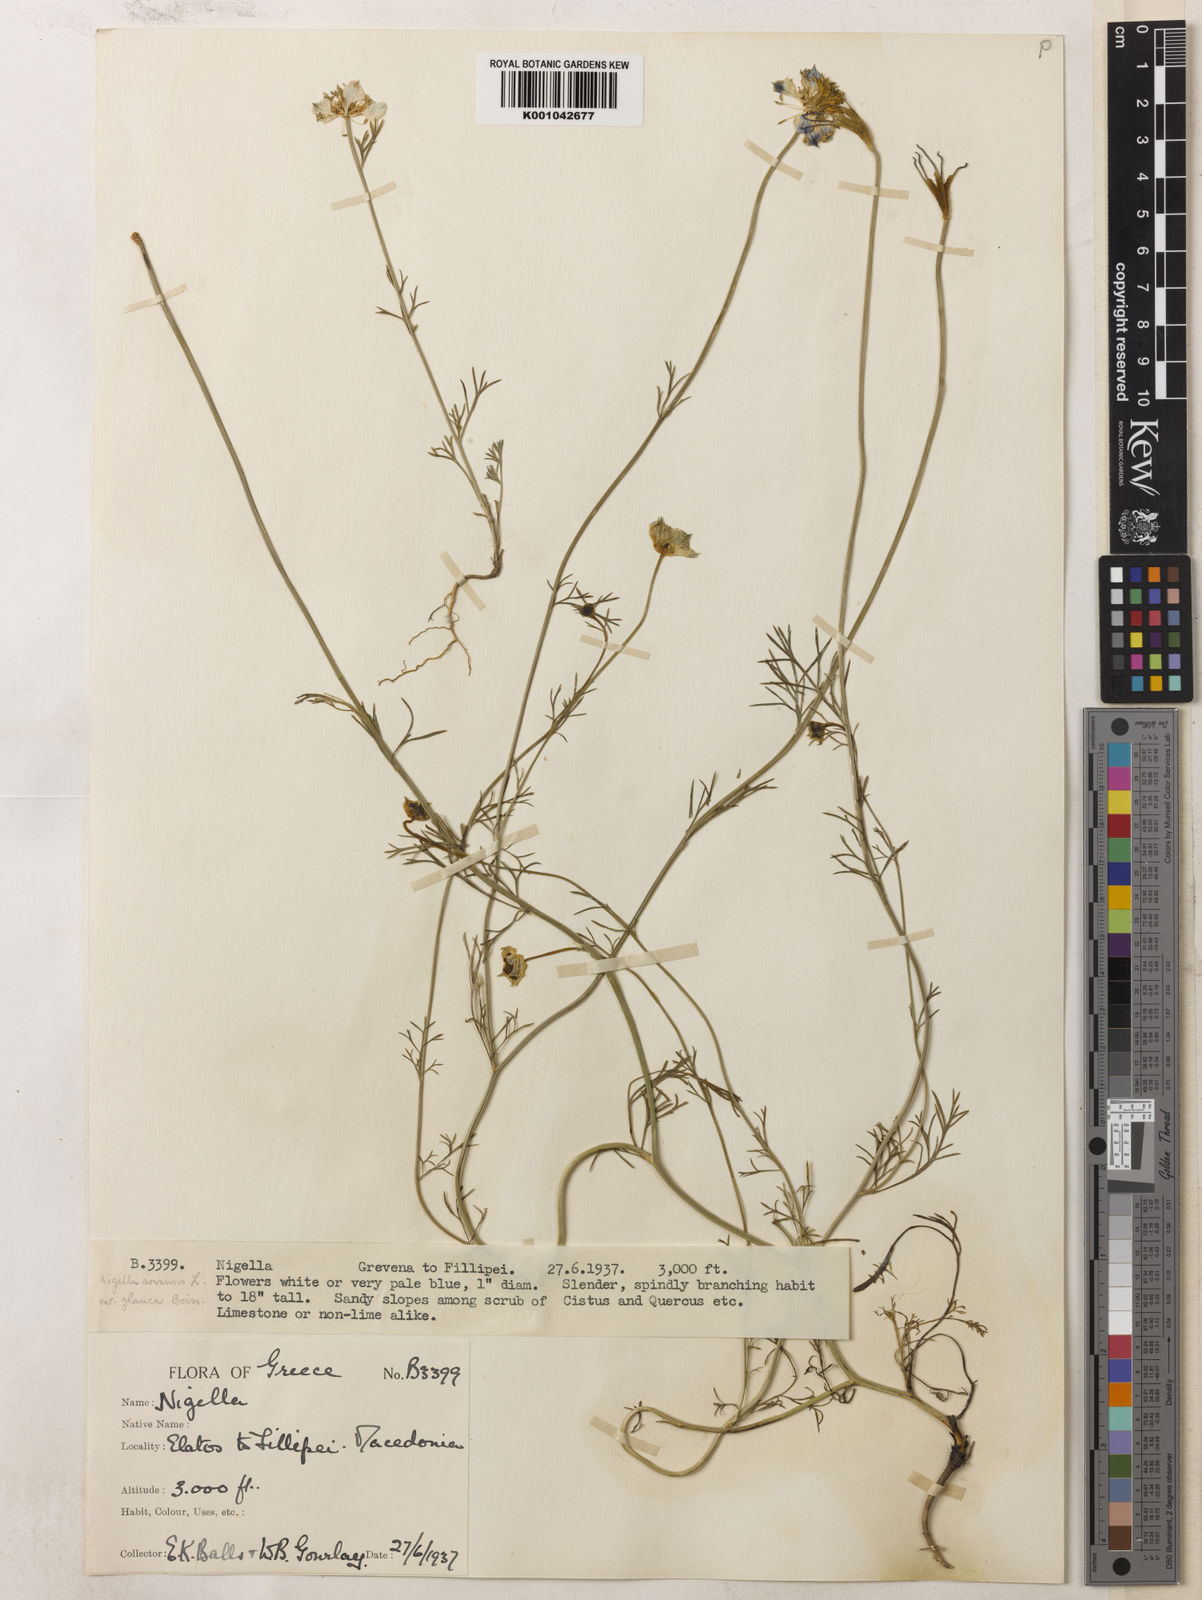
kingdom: Plantae
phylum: Tracheophyta
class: Magnoliopsida
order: Ranunculales
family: Ranunculaceae
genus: Nigella
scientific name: Nigella arvensis
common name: Wild fennel-flower
